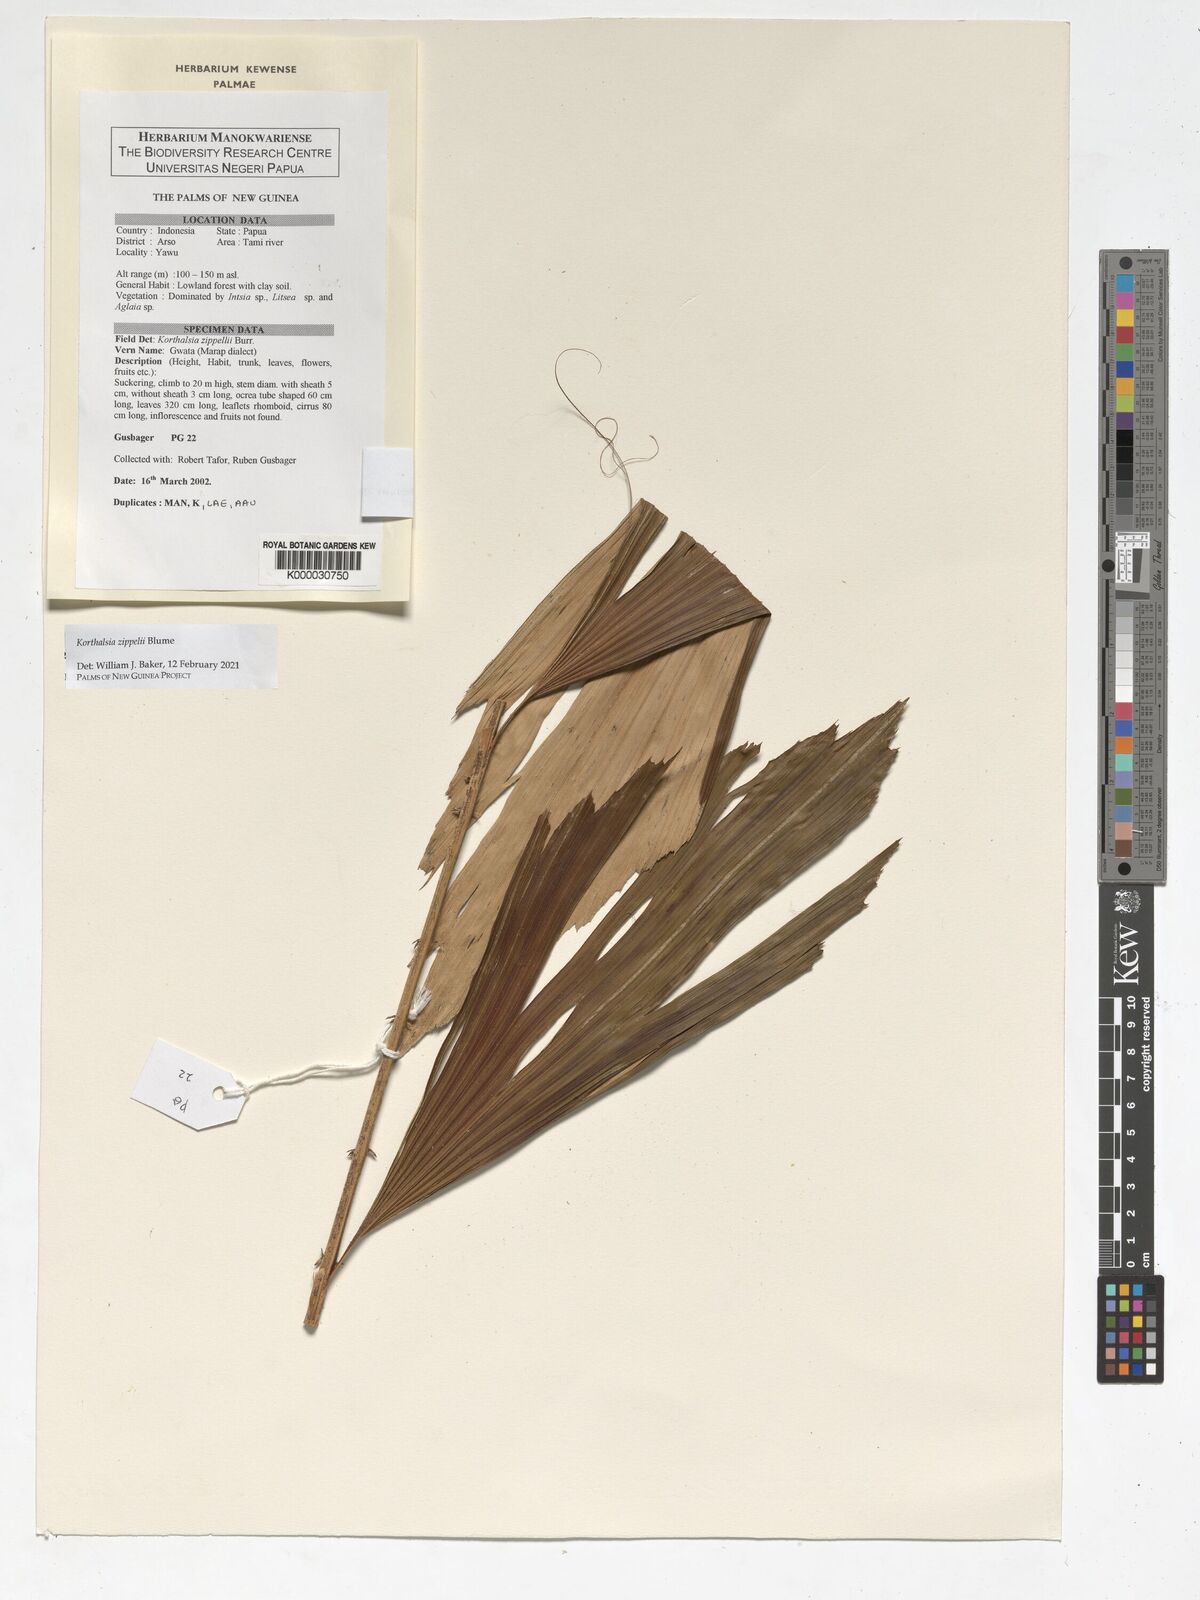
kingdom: Plantae
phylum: Tracheophyta
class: Liliopsida
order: Arecales
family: Arecaceae
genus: Korthalsia
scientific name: Korthalsia zippelii
